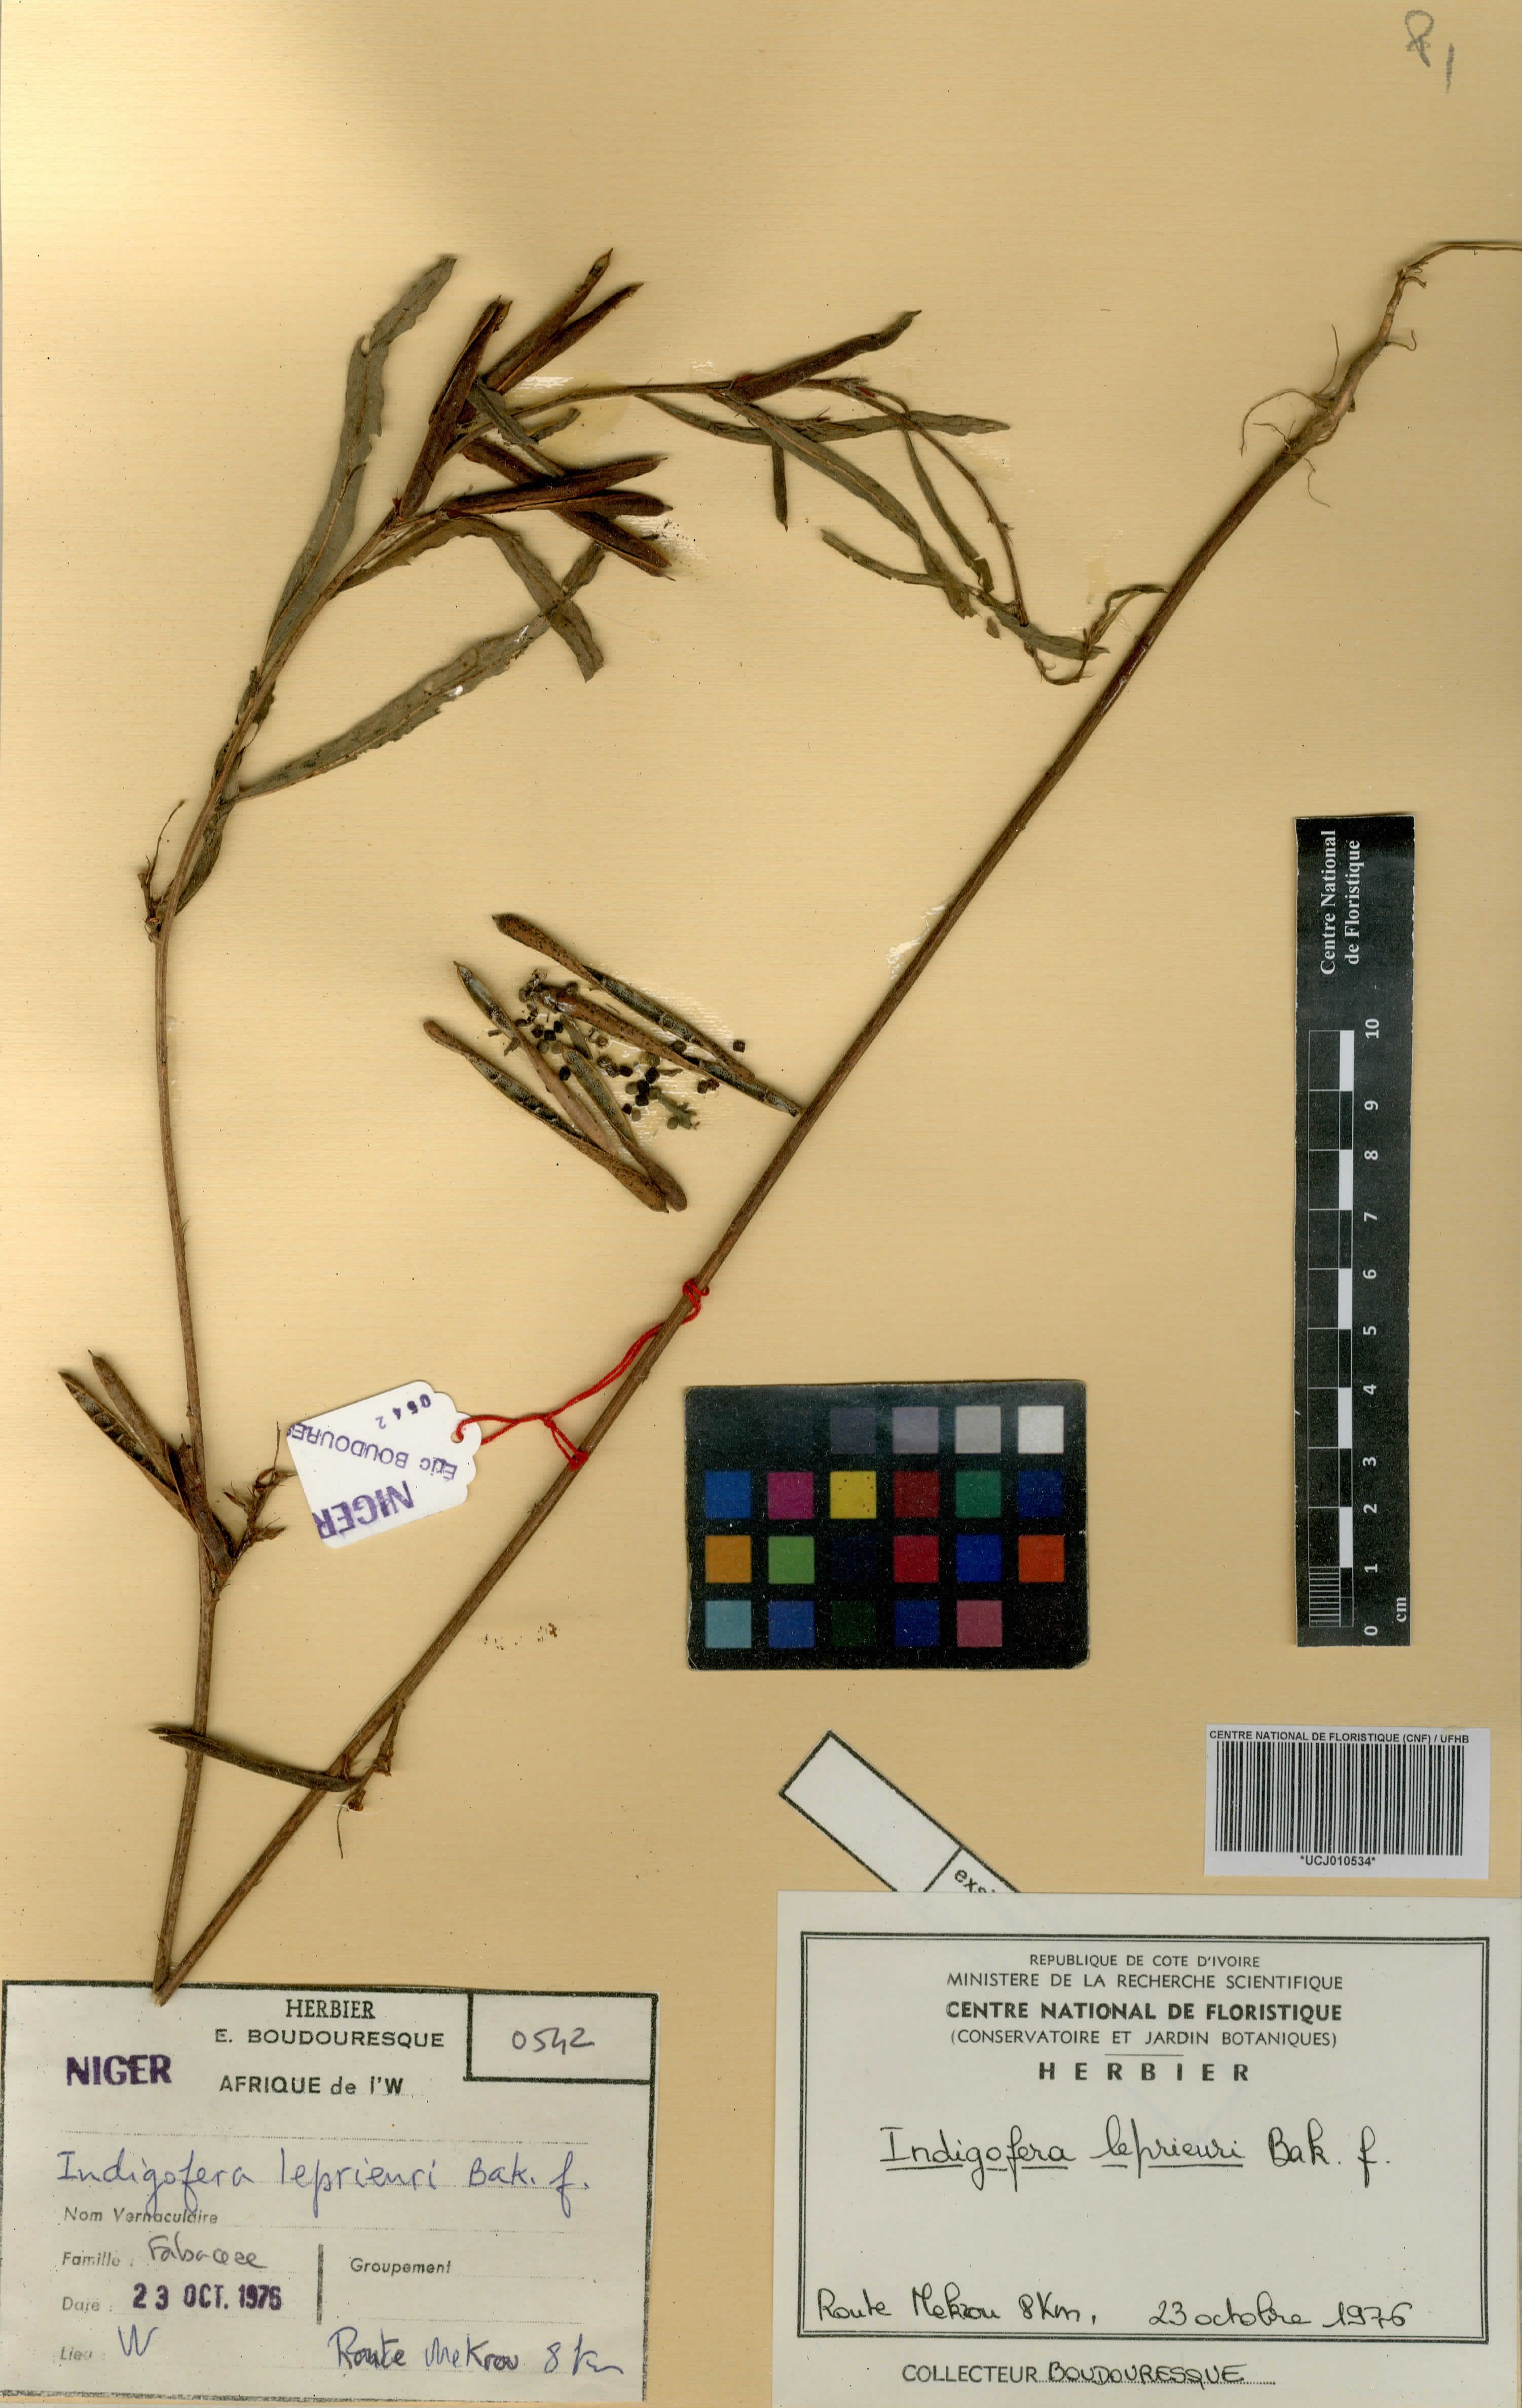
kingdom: Plantae
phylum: Tracheophyta
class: Magnoliopsida
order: Fabales
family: Fabaceae
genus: Indigofera
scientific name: Indigofera leprieurii
